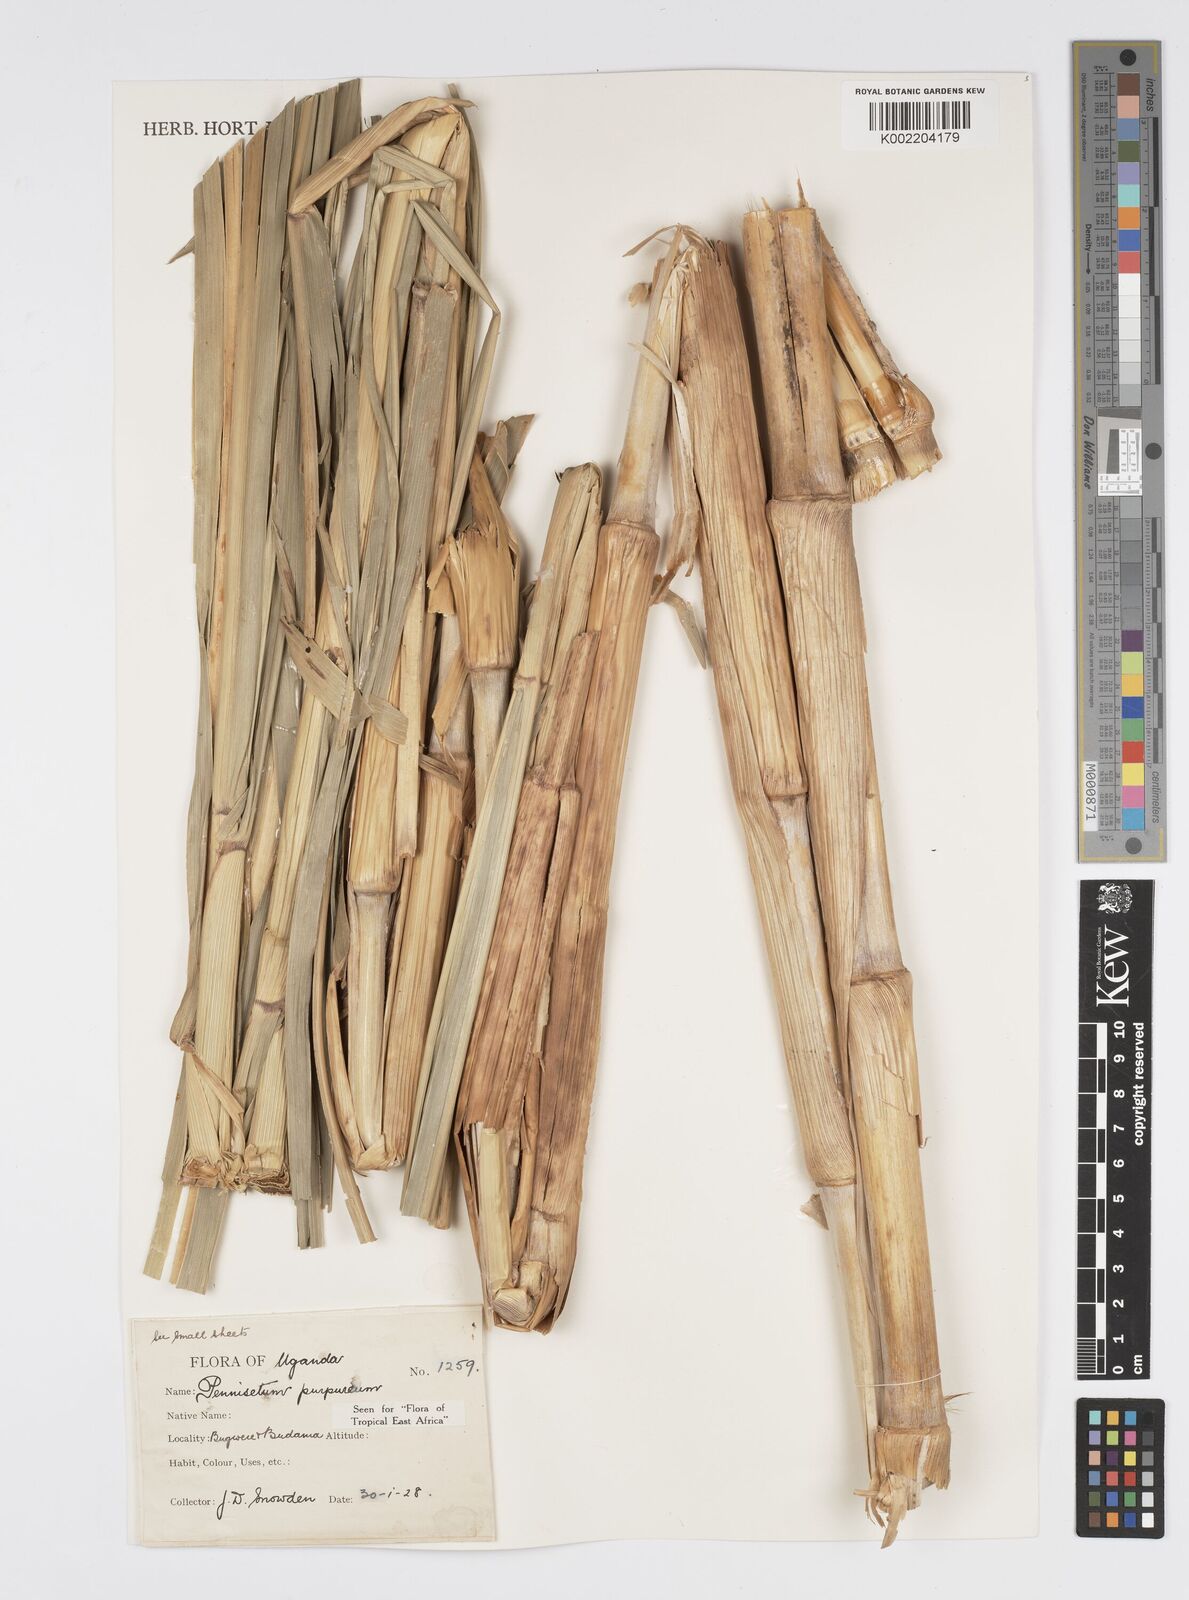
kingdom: Plantae
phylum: Tracheophyta
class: Liliopsida
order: Poales
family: Poaceae
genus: Cenchrus
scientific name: Cenchrus purpureus
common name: Elephant grass
